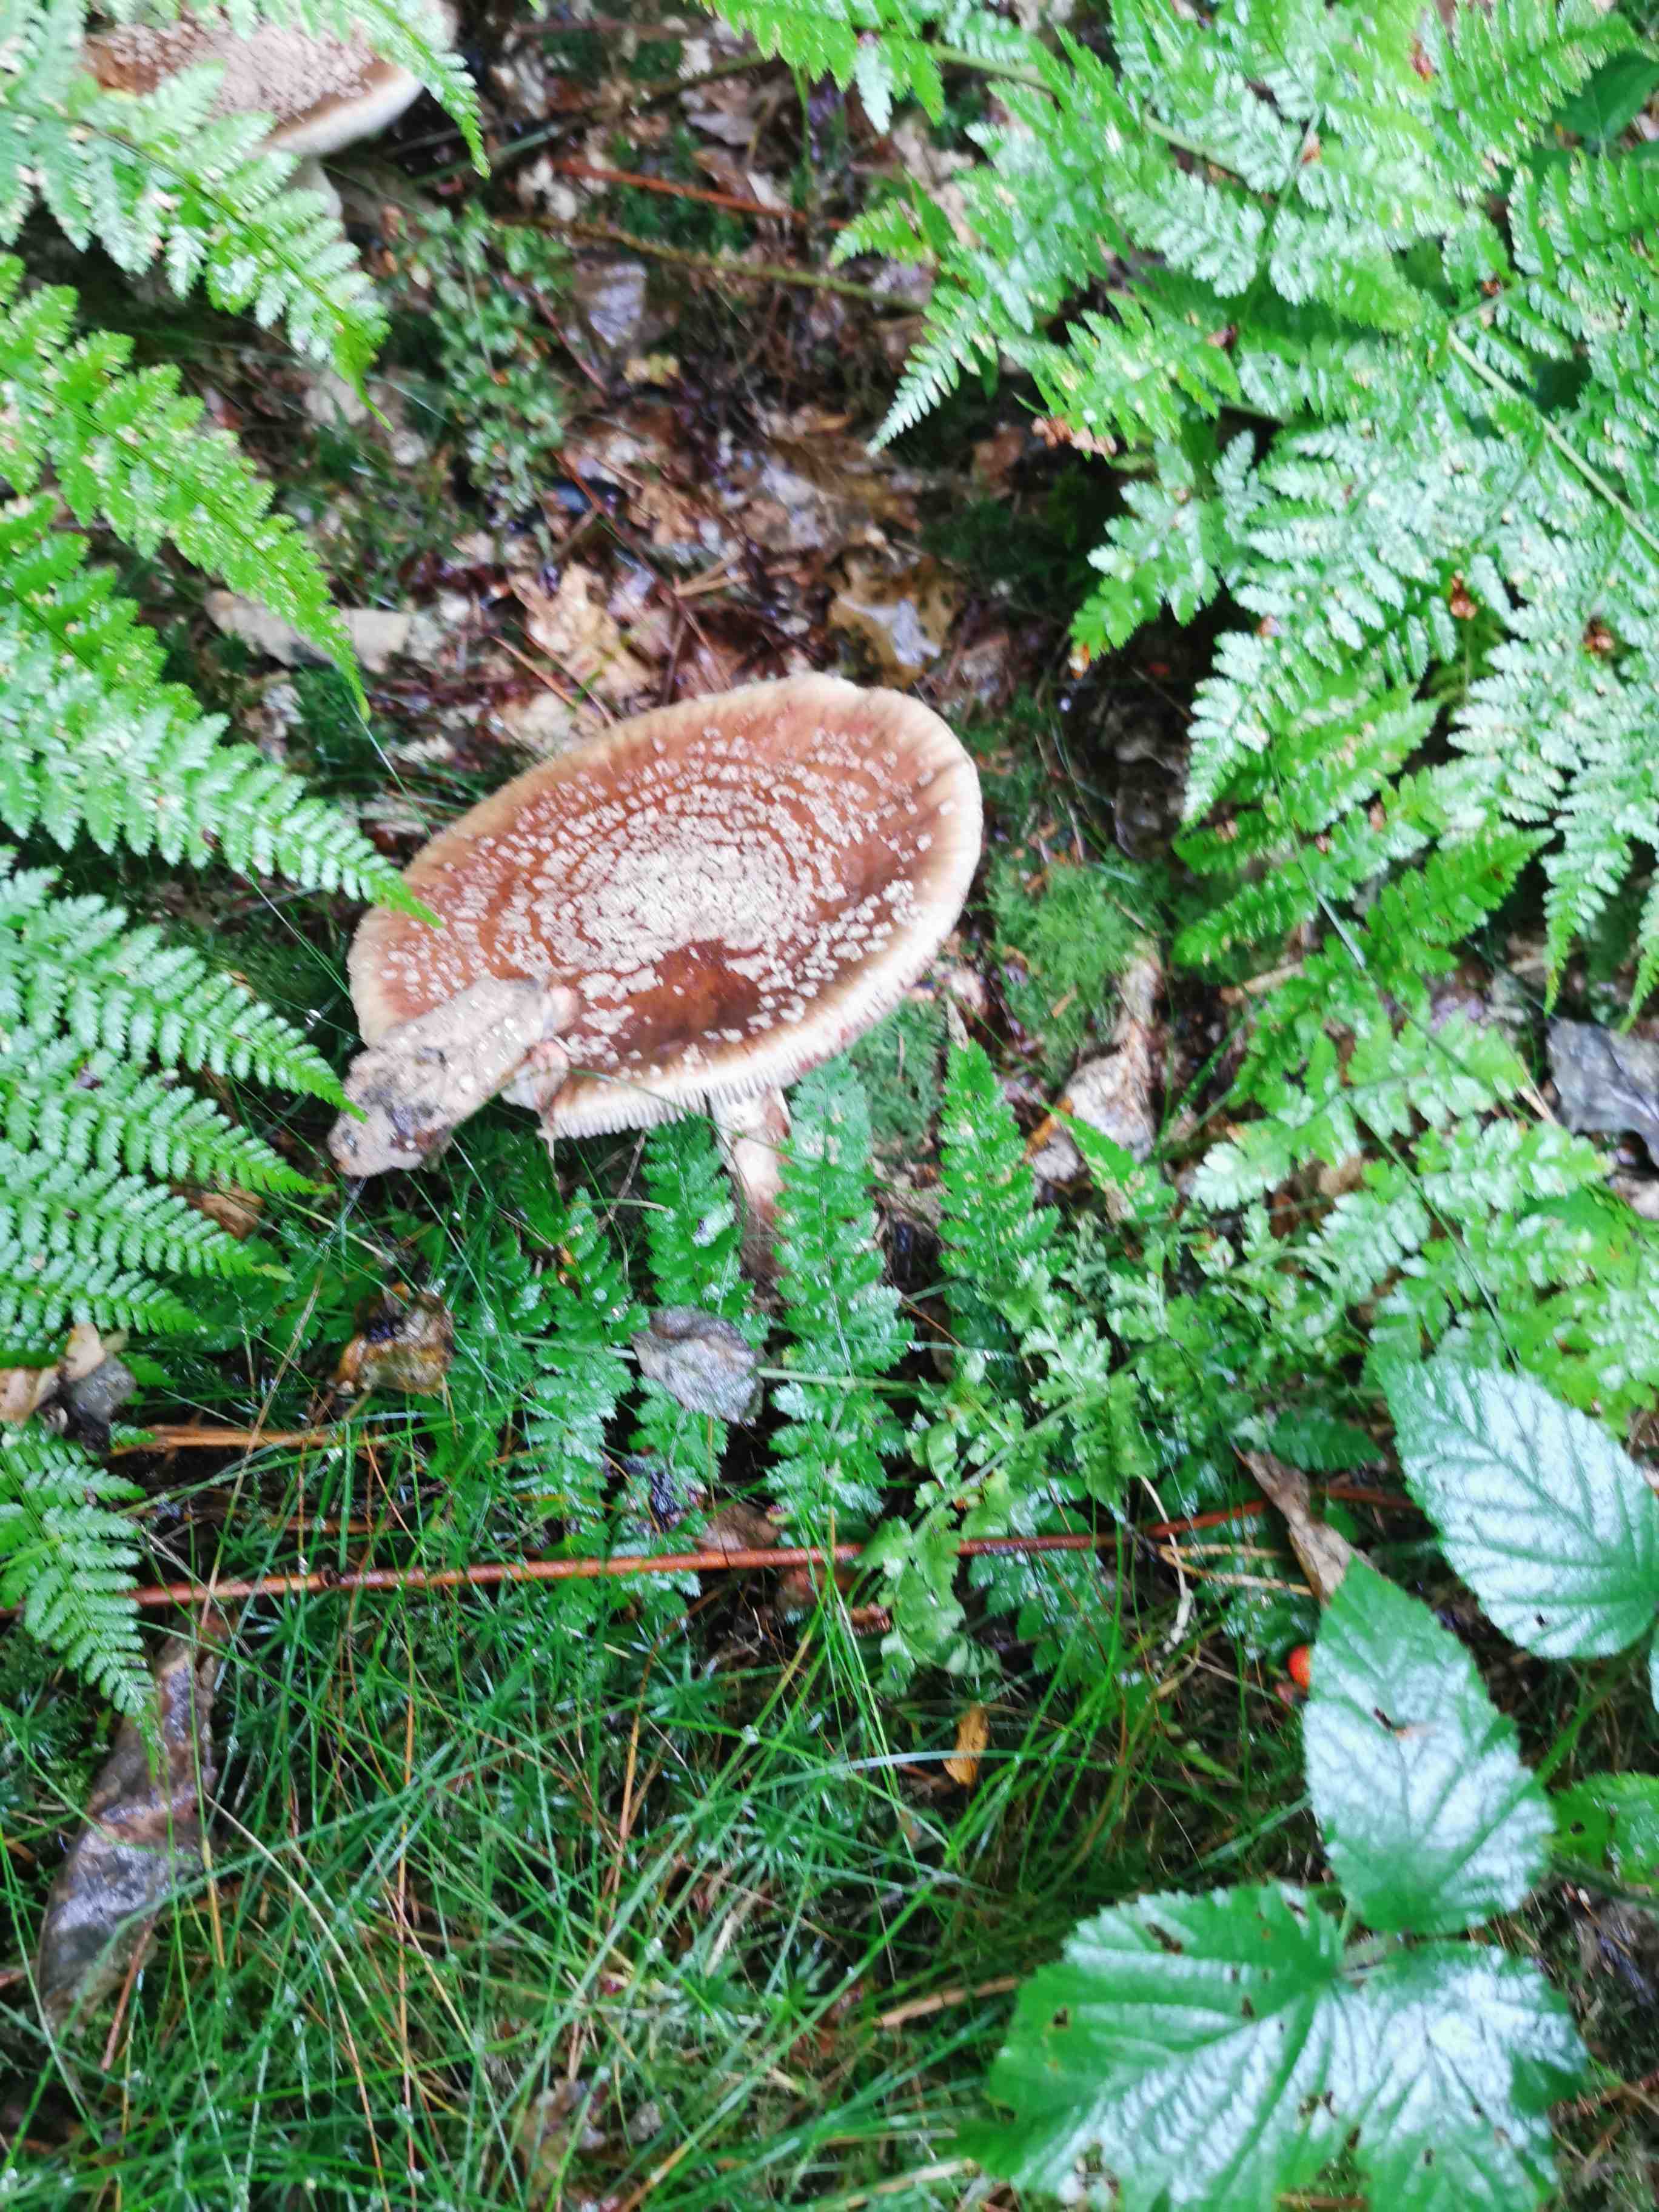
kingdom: Fungi
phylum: Basidiomycota
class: Agaricomycetes
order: Agaricales
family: Amanitaceae
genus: Amanita
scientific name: Amanita rubescens
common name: rødmende fluesvamp
